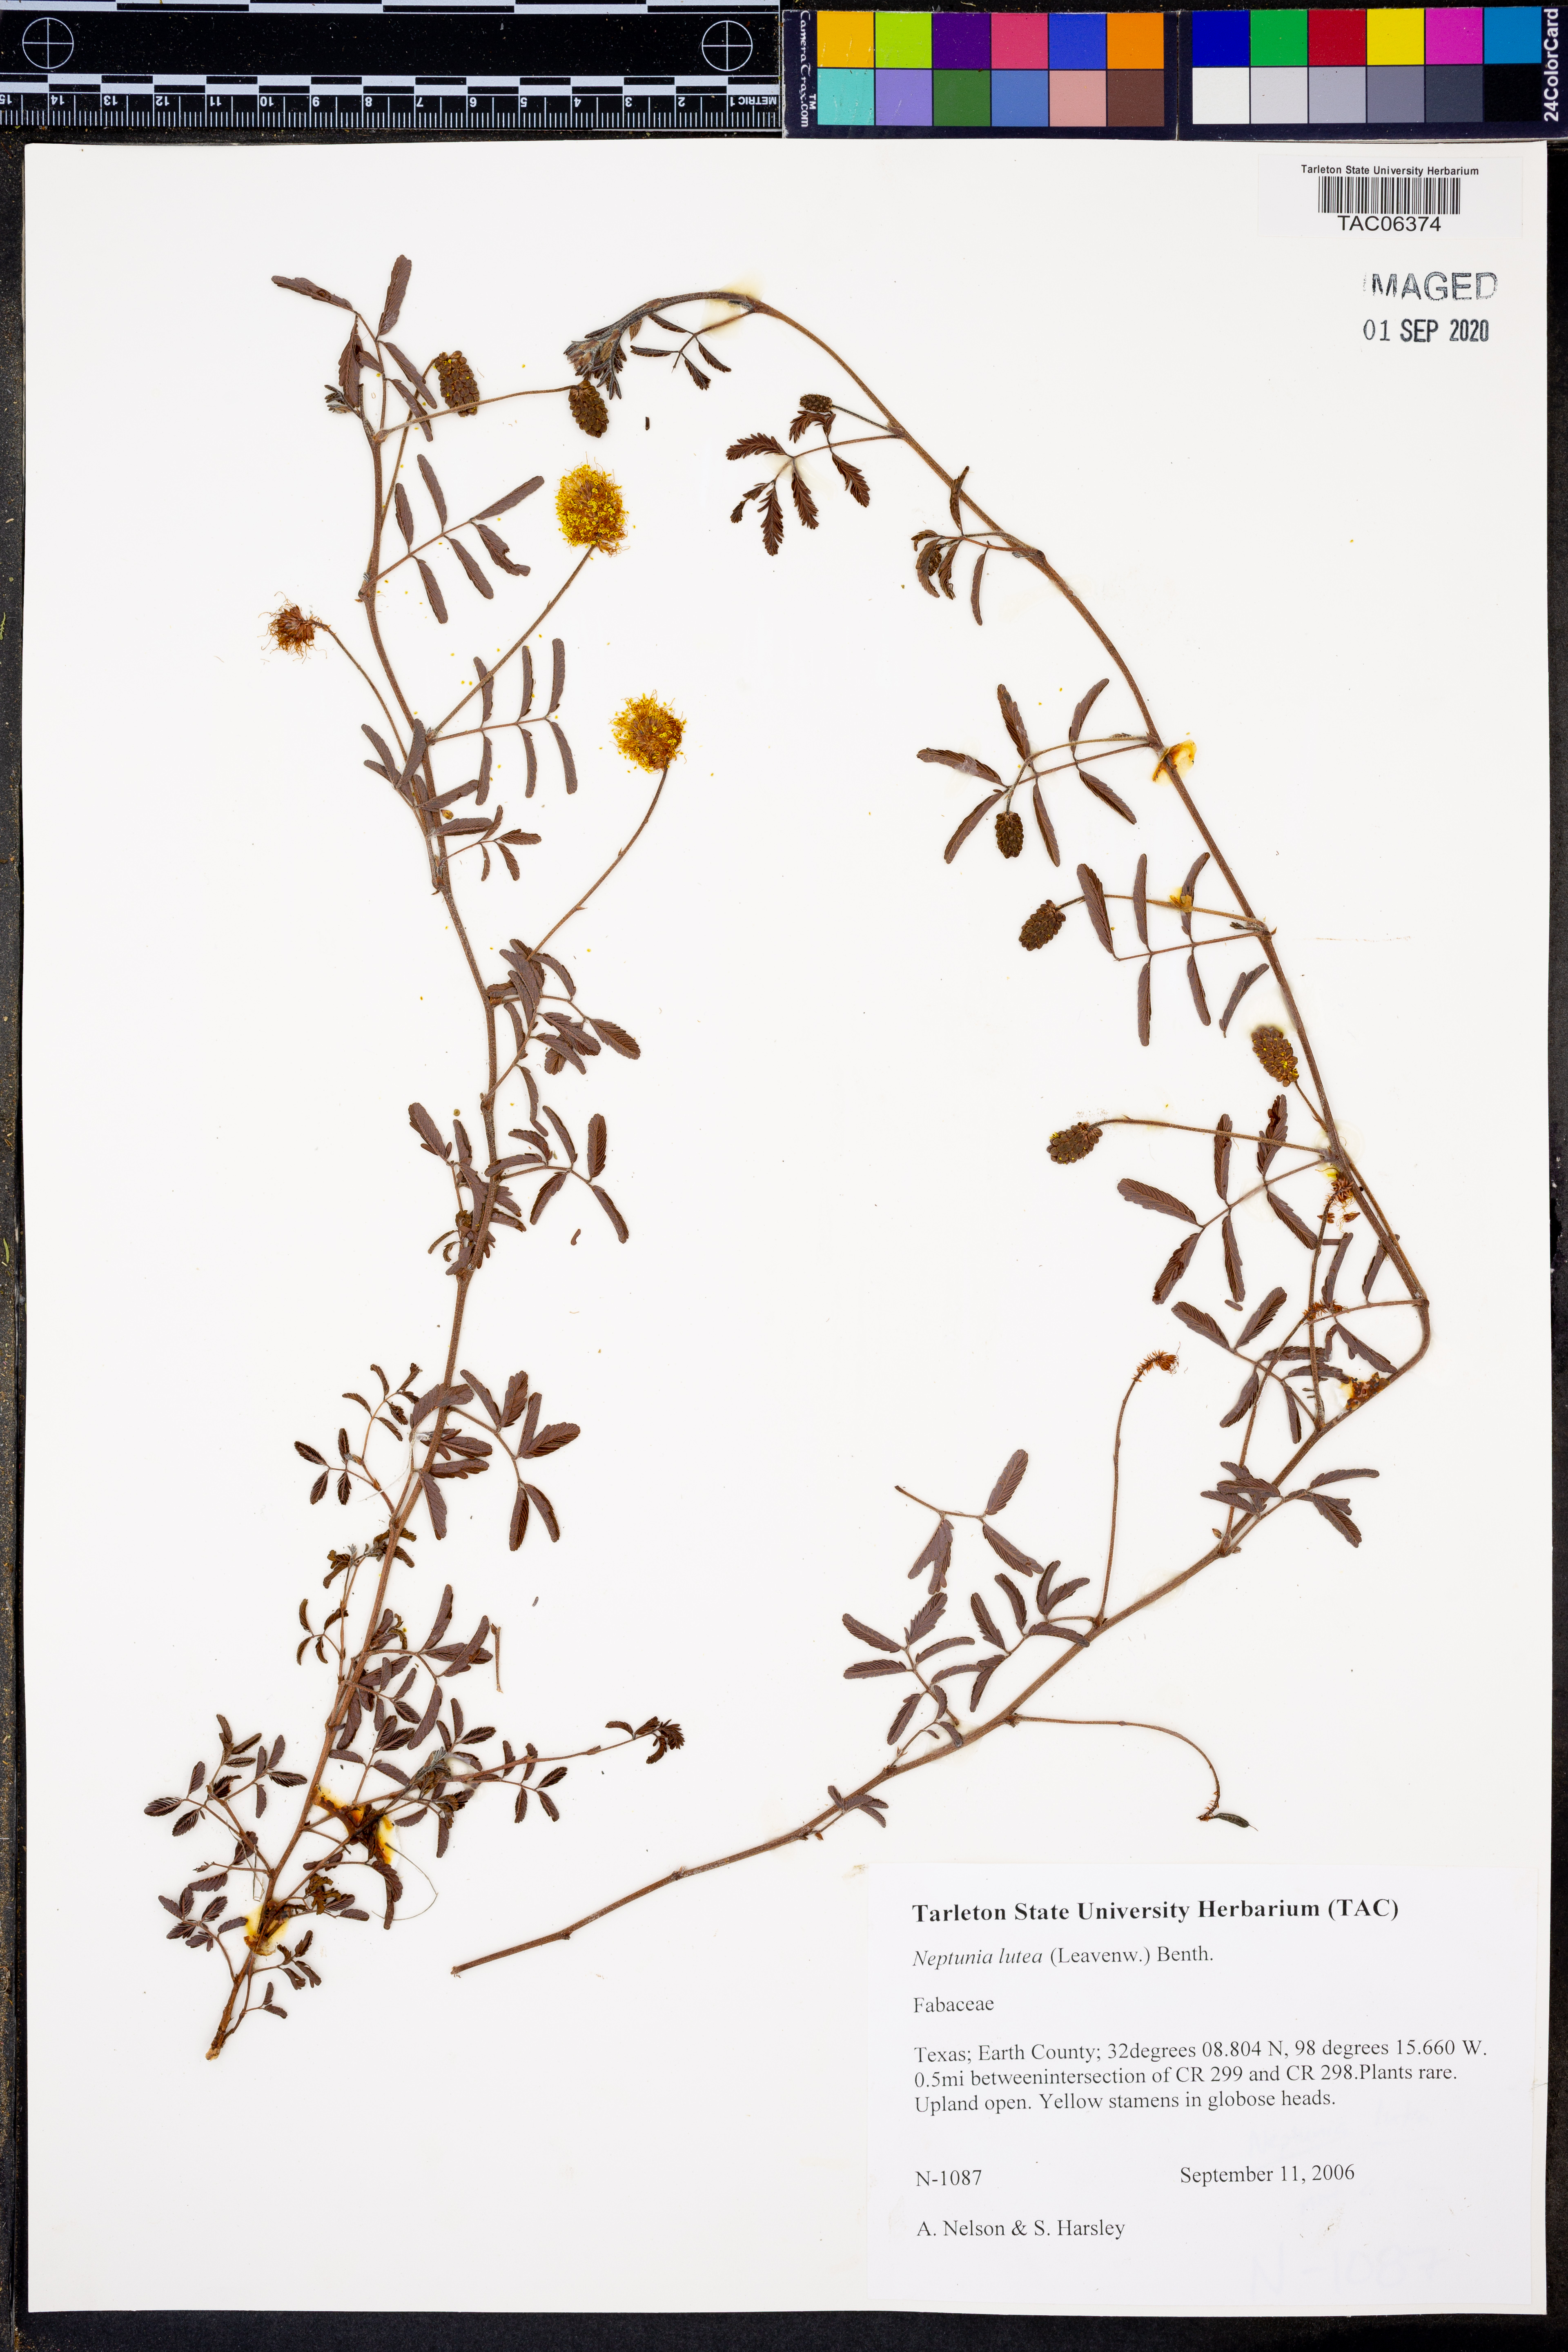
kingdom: Plantae
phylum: Tracheophyta
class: Magnoliopsida
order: Fabales
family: Fabaceae
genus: Neptunia
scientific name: Neptunia lutea
